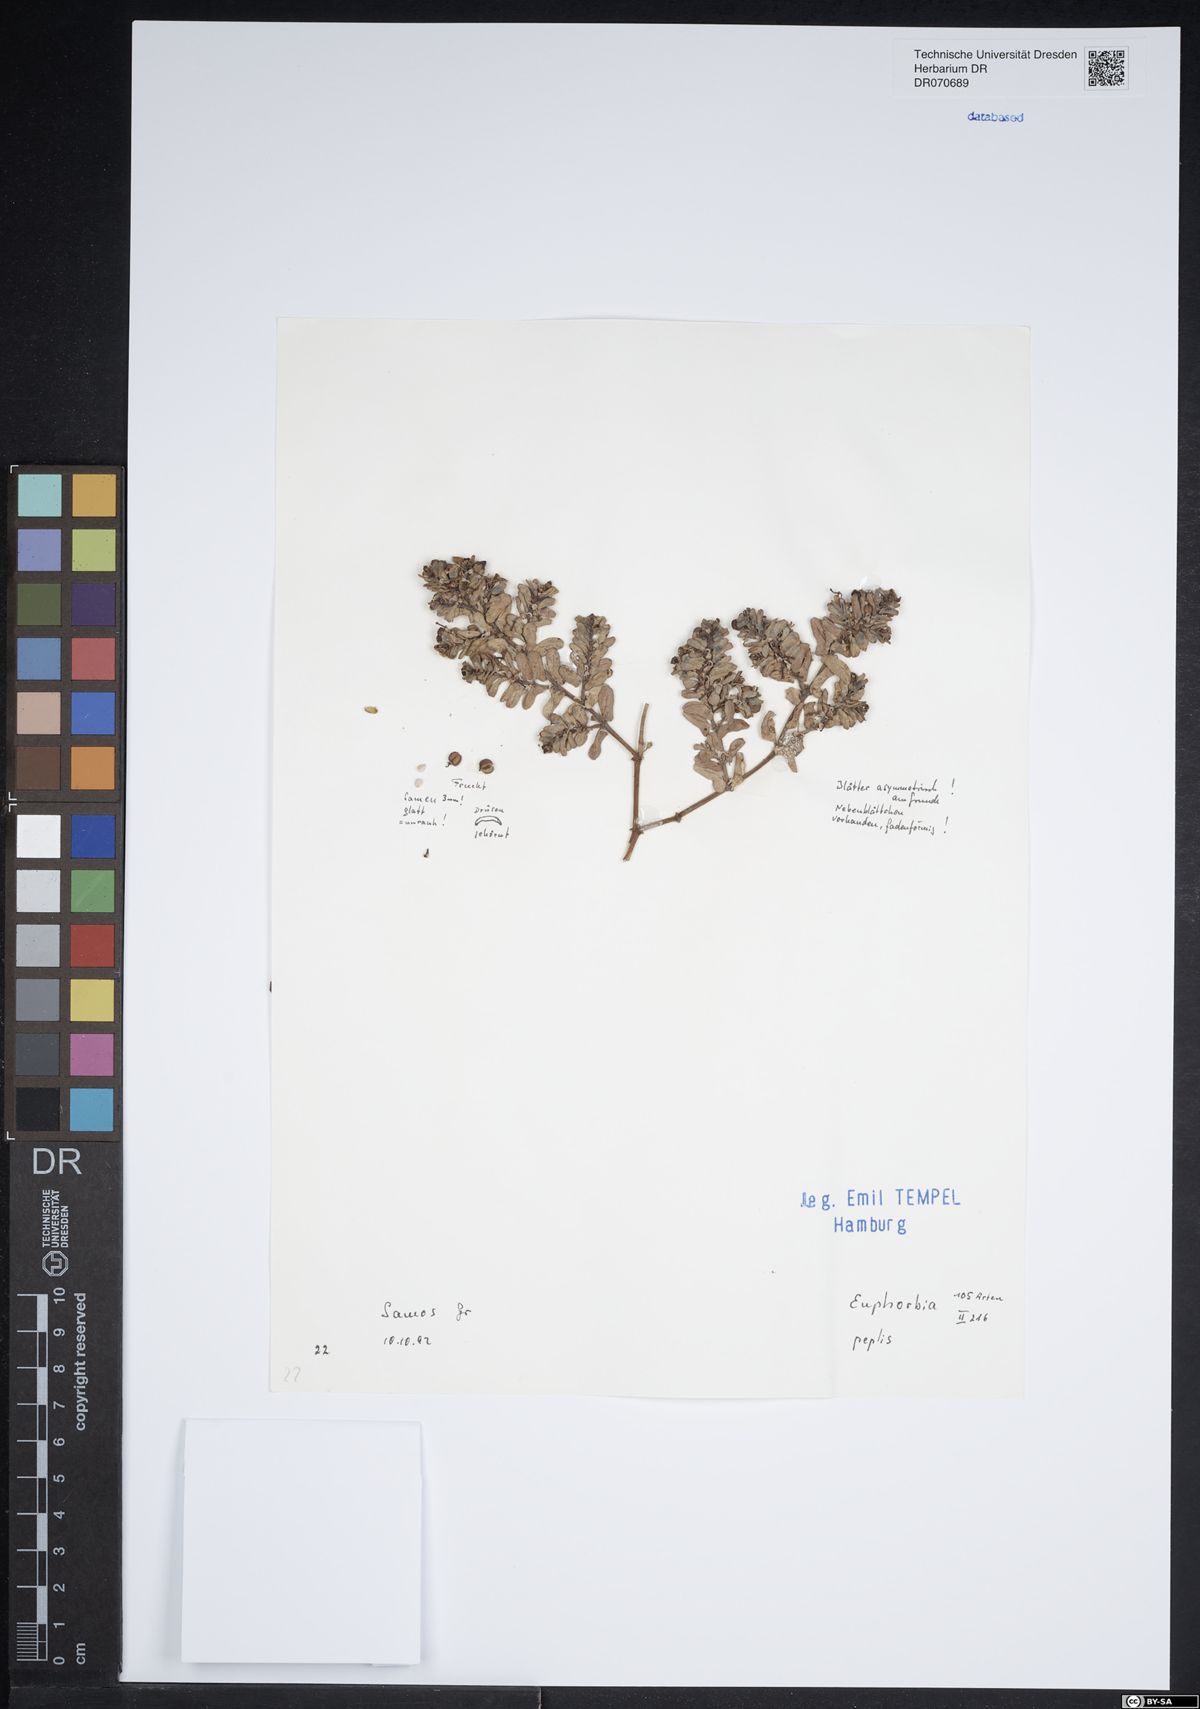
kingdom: Plantae
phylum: Tracheophyta
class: Magnoliopsida
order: Malpighiales
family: Euphorbiaceae
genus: Euphorbia
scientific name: Euphorbia peplis
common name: Purple spurge
